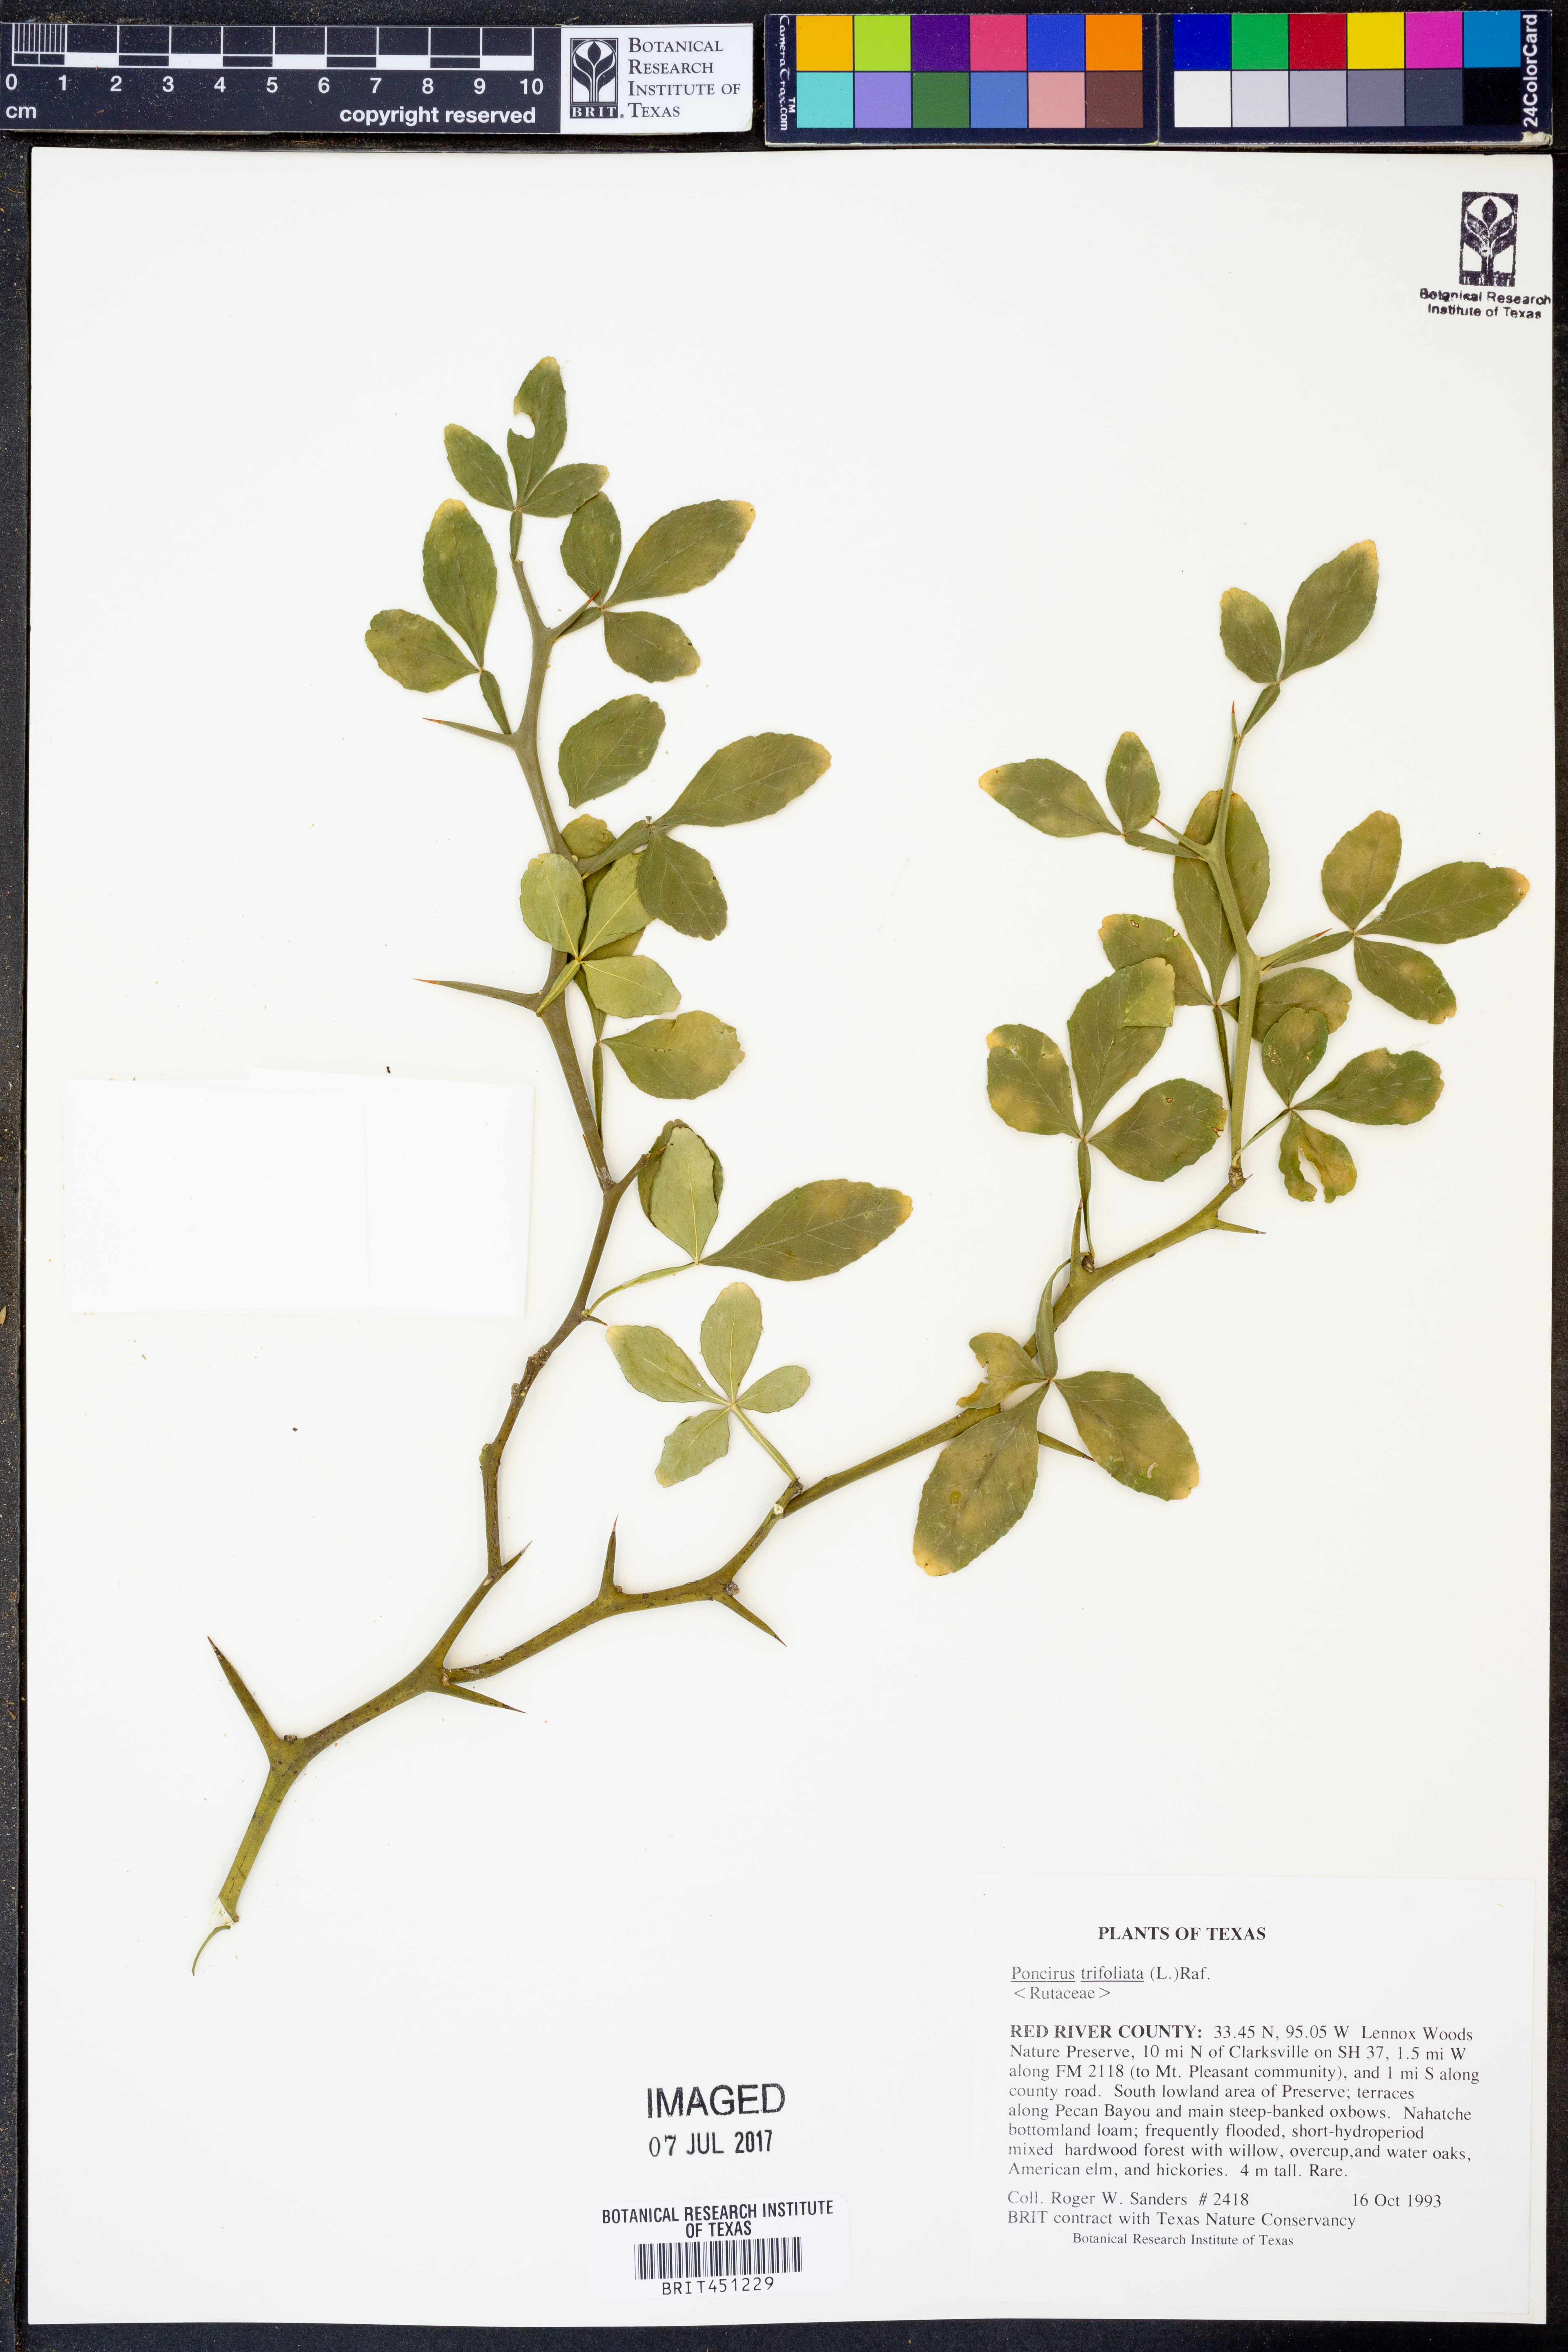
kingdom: Plantae
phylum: Tracheophyta
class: Magnoliopsida
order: Sapindales
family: Rutaceae
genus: Citrus
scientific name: Citrus trifoliata
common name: Japanese bitter-orange
